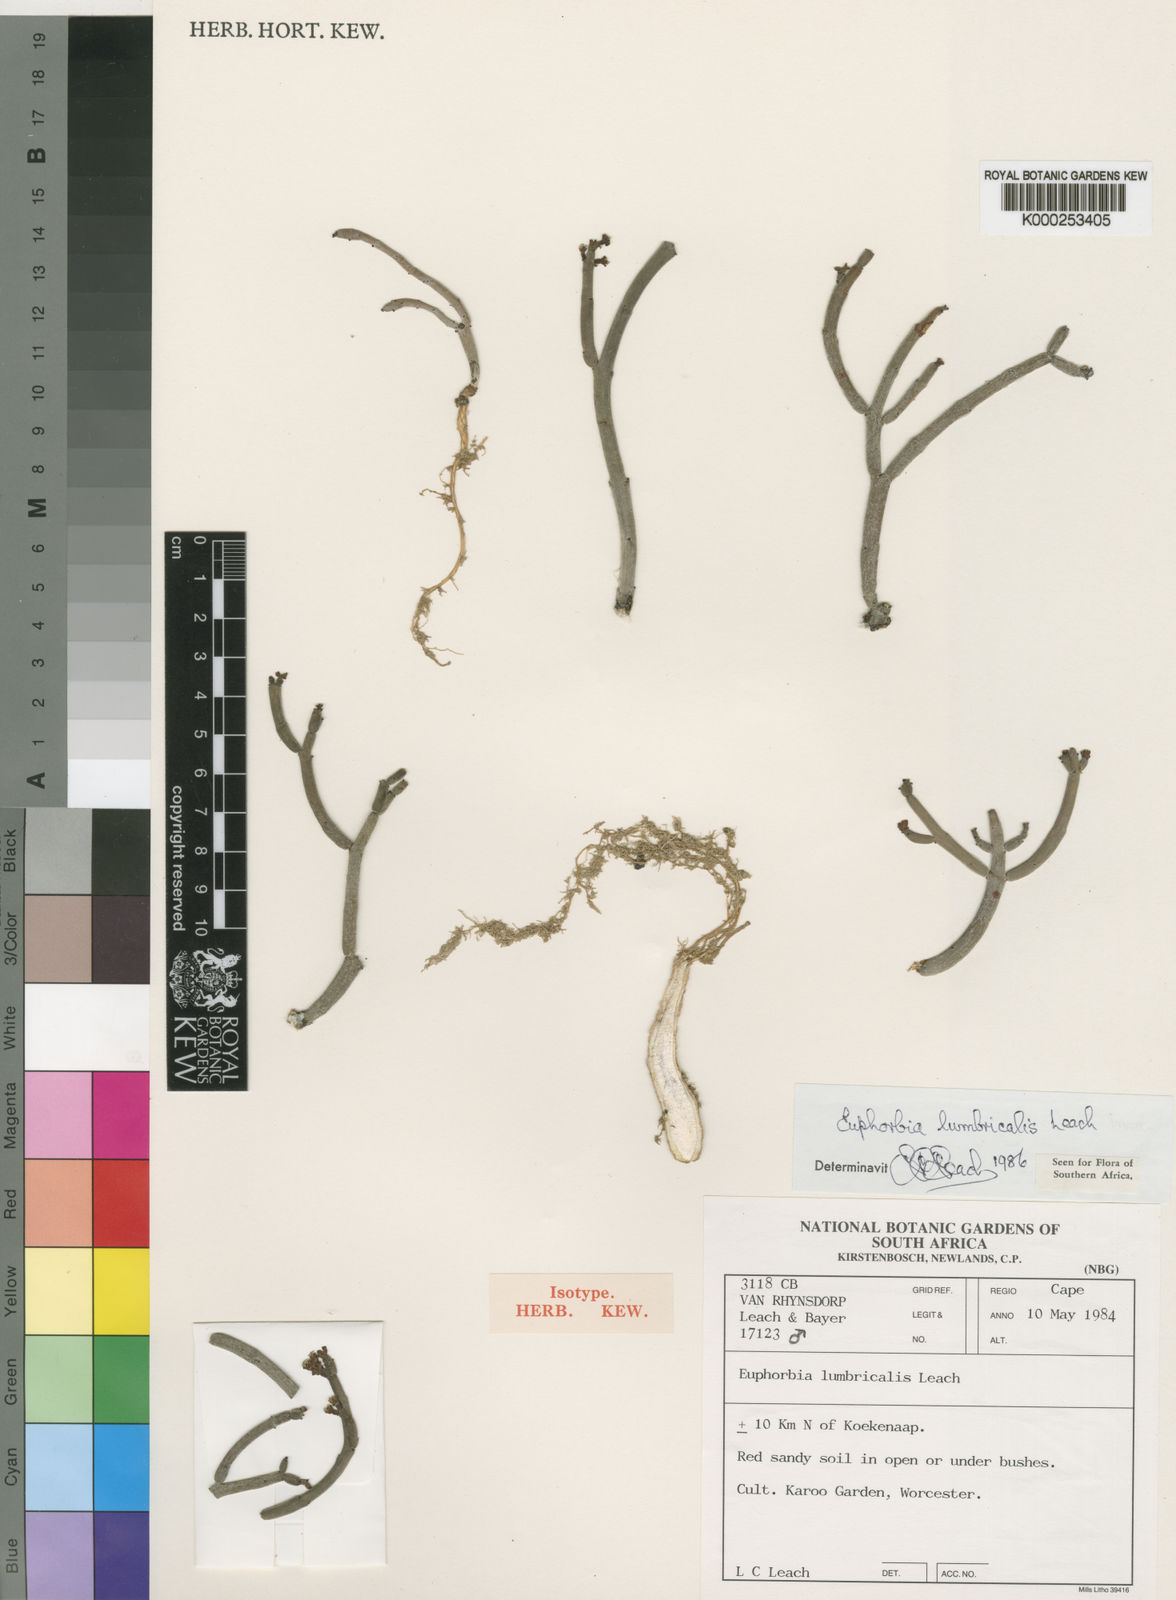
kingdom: Plantae
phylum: Tracheophyta
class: Magnoliopsida
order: Malpighiales
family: Euphorbiaceae
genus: Euphorbia
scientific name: Euphorbia stapelioides
